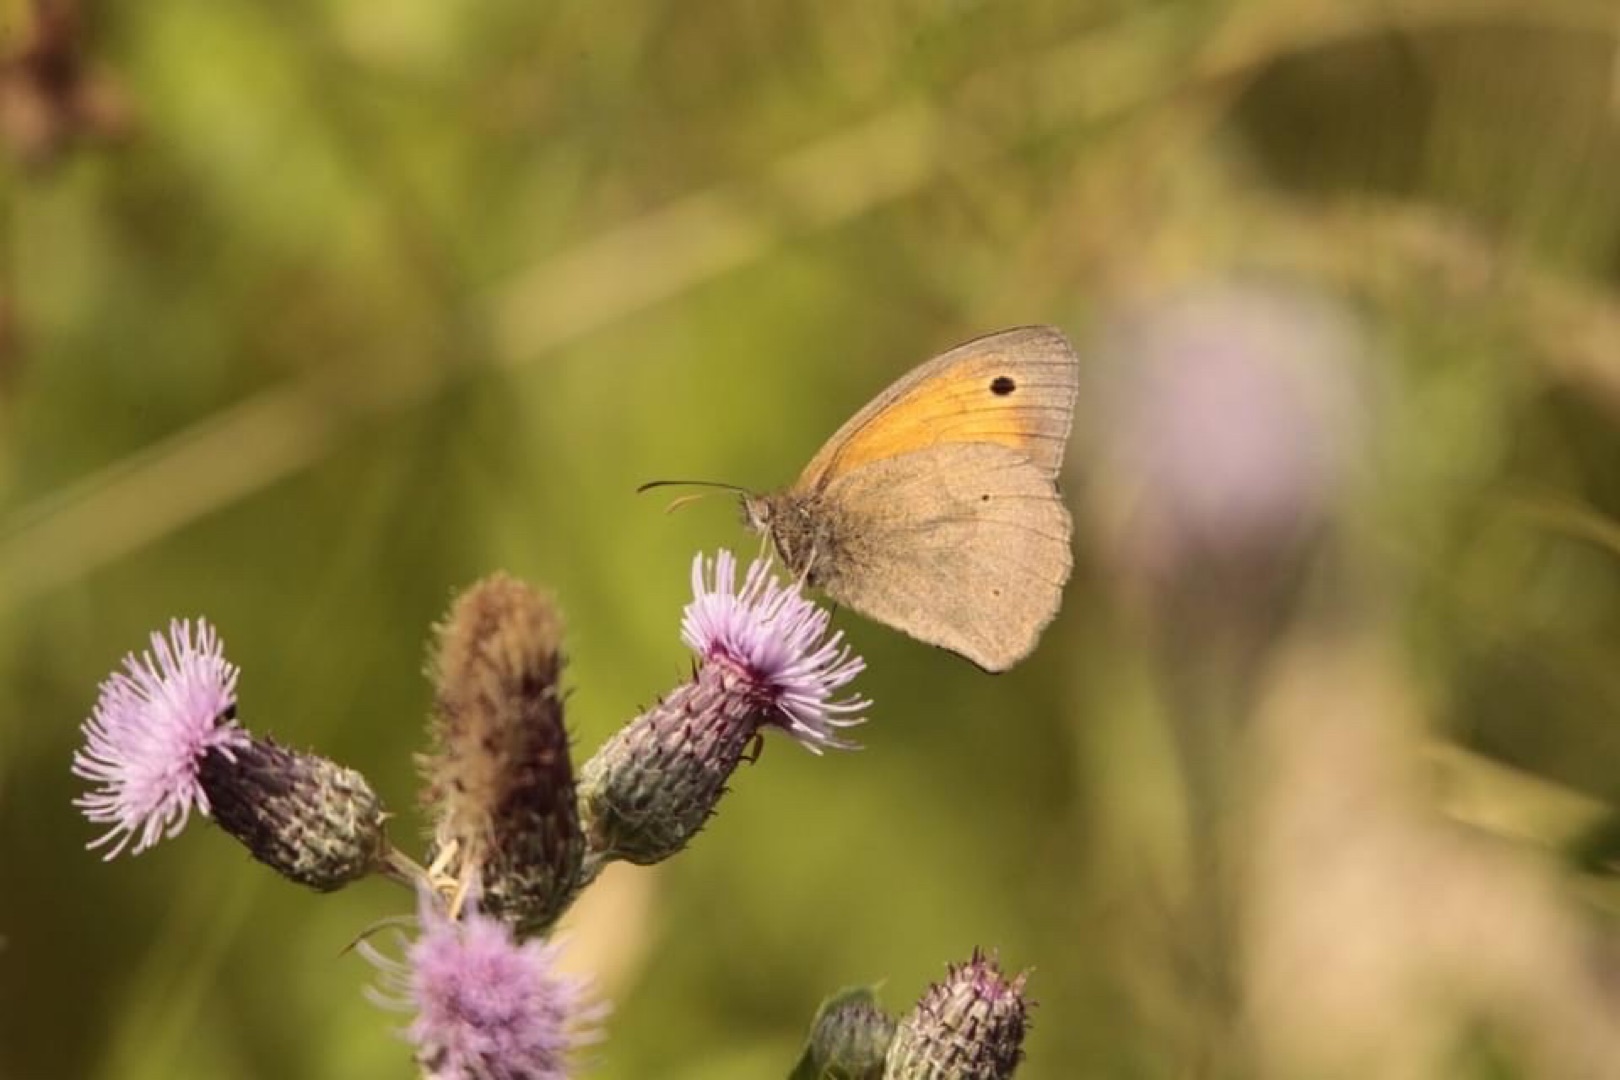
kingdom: Animalia
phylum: Arthropoda
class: Insecta
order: Lepidoptera
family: Nymphalidae
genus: Maniola
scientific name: Maniola jurtina
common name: Græsrandøje
